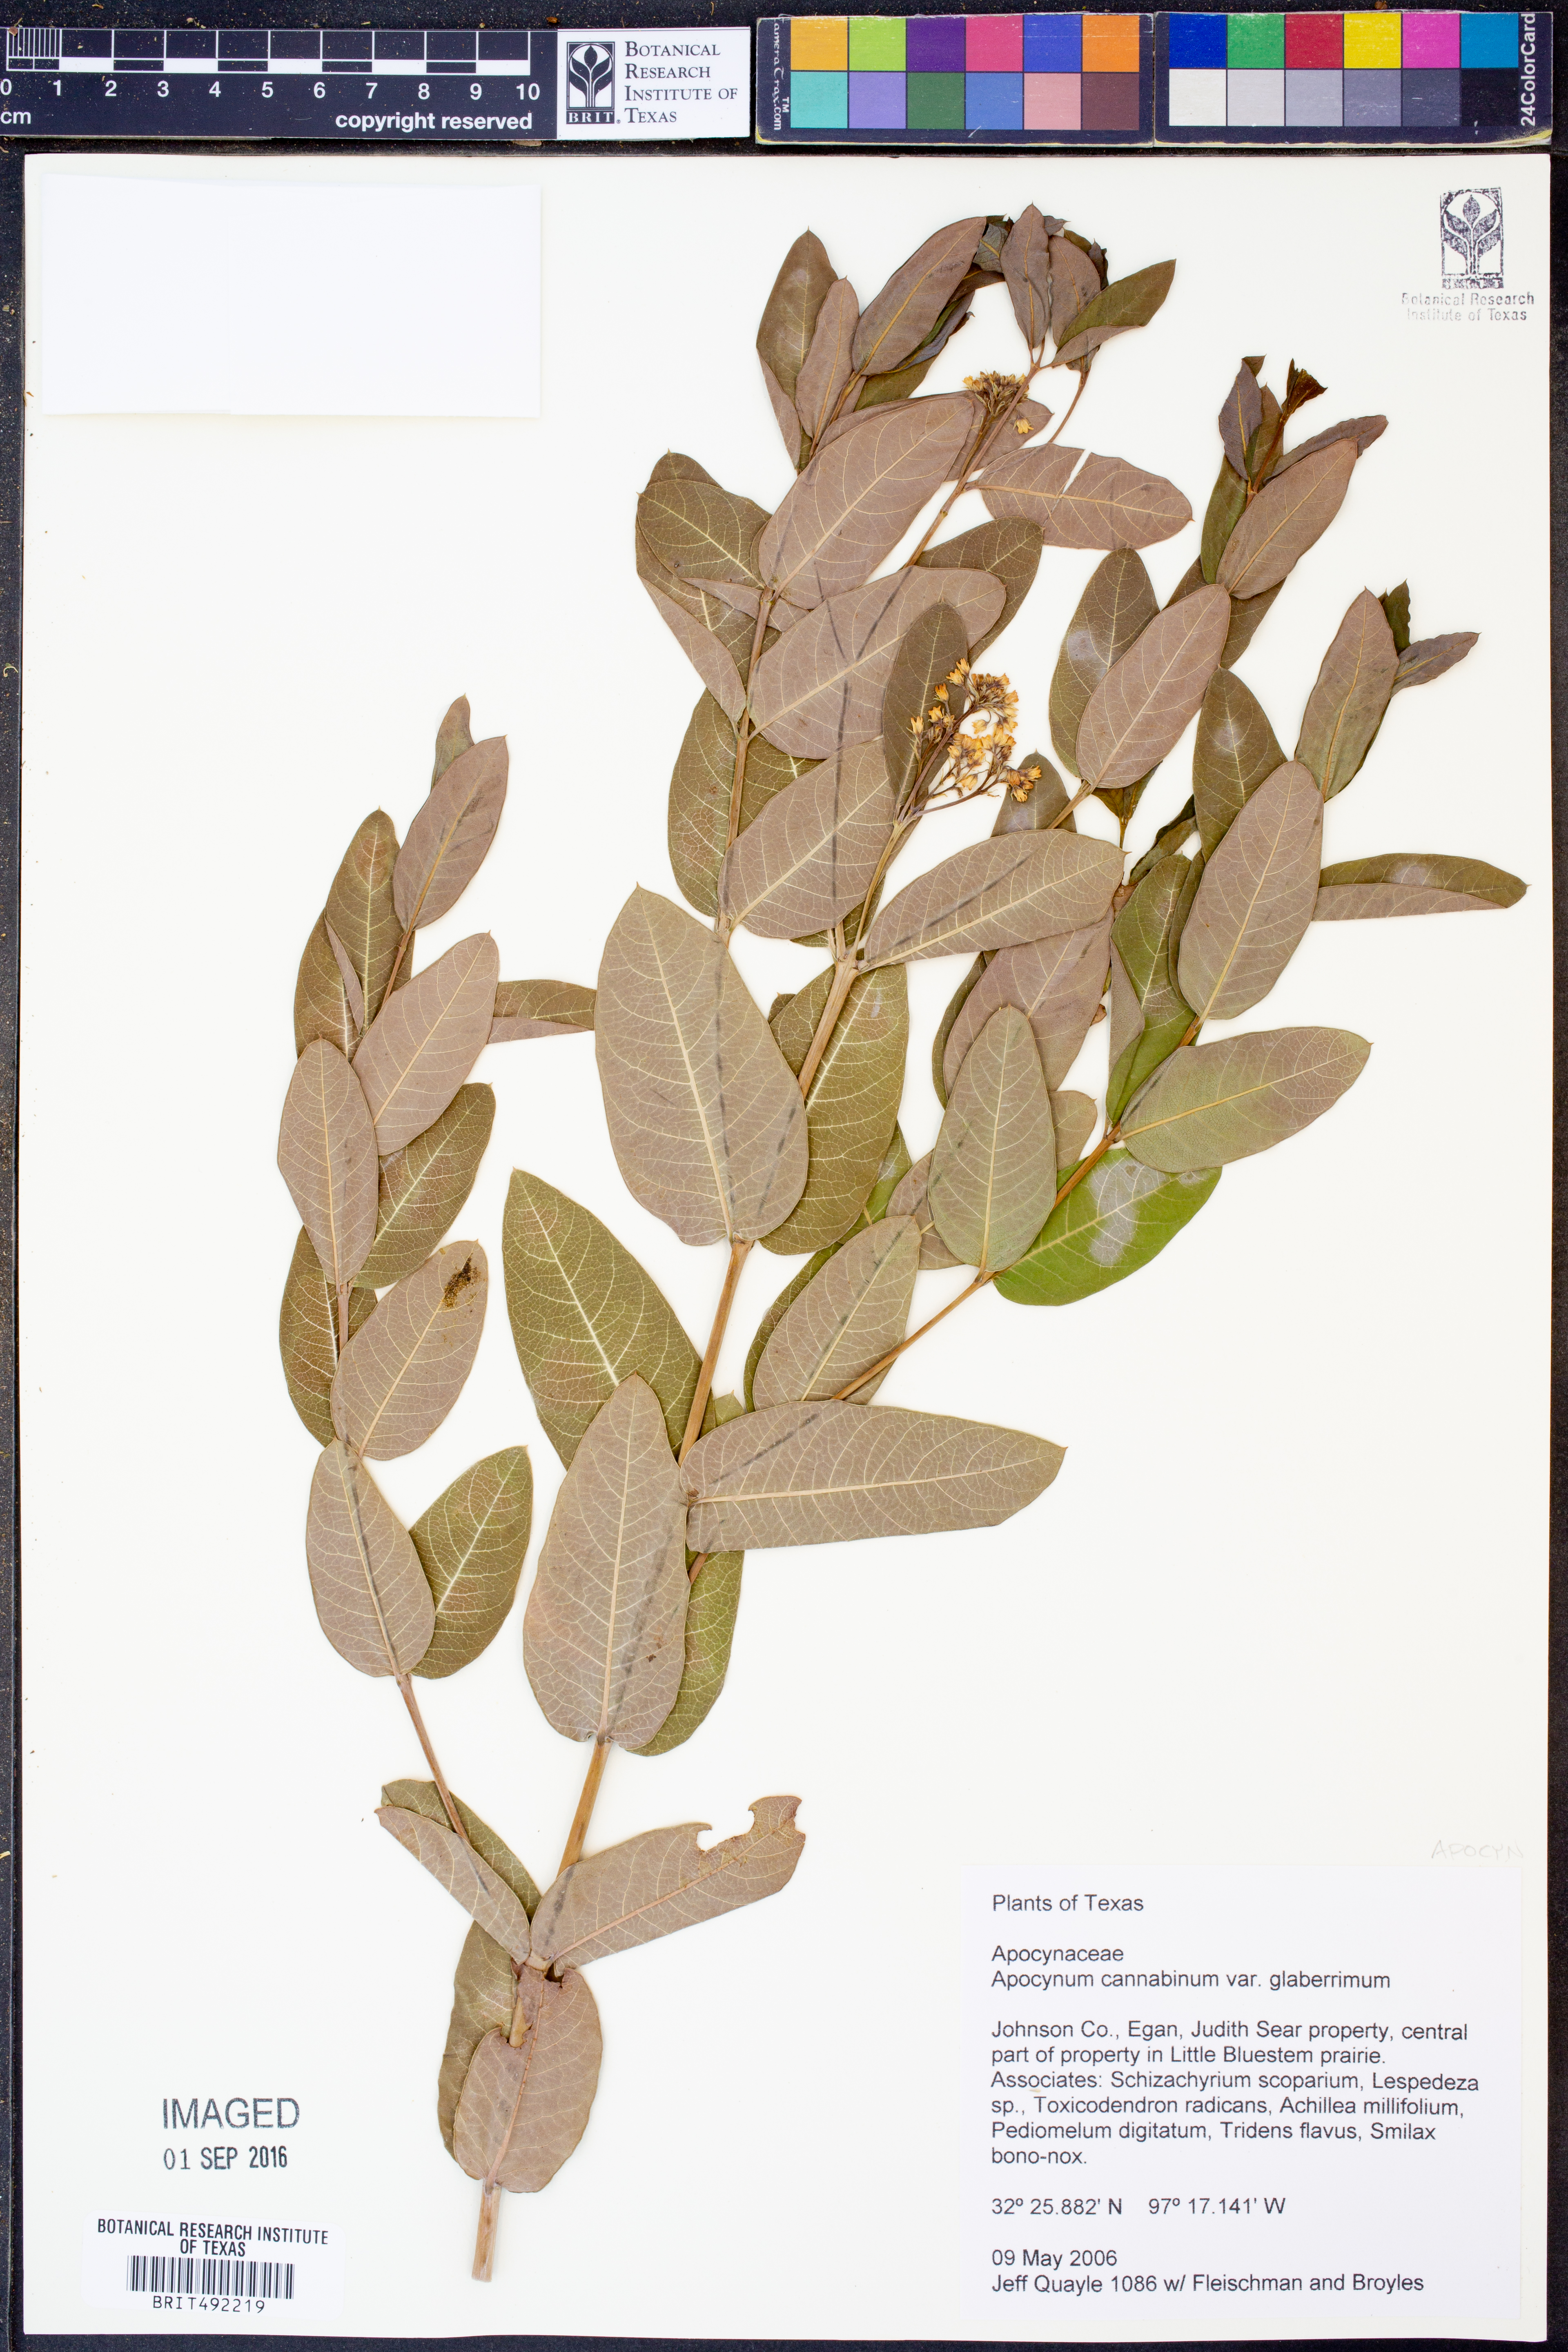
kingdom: Plantae
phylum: Tracheophyta
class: Magnoliopsida
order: Gentianales
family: Apocynaceae
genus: Apocynum
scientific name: Apocynum cannabinum
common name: Hemp dogbane
